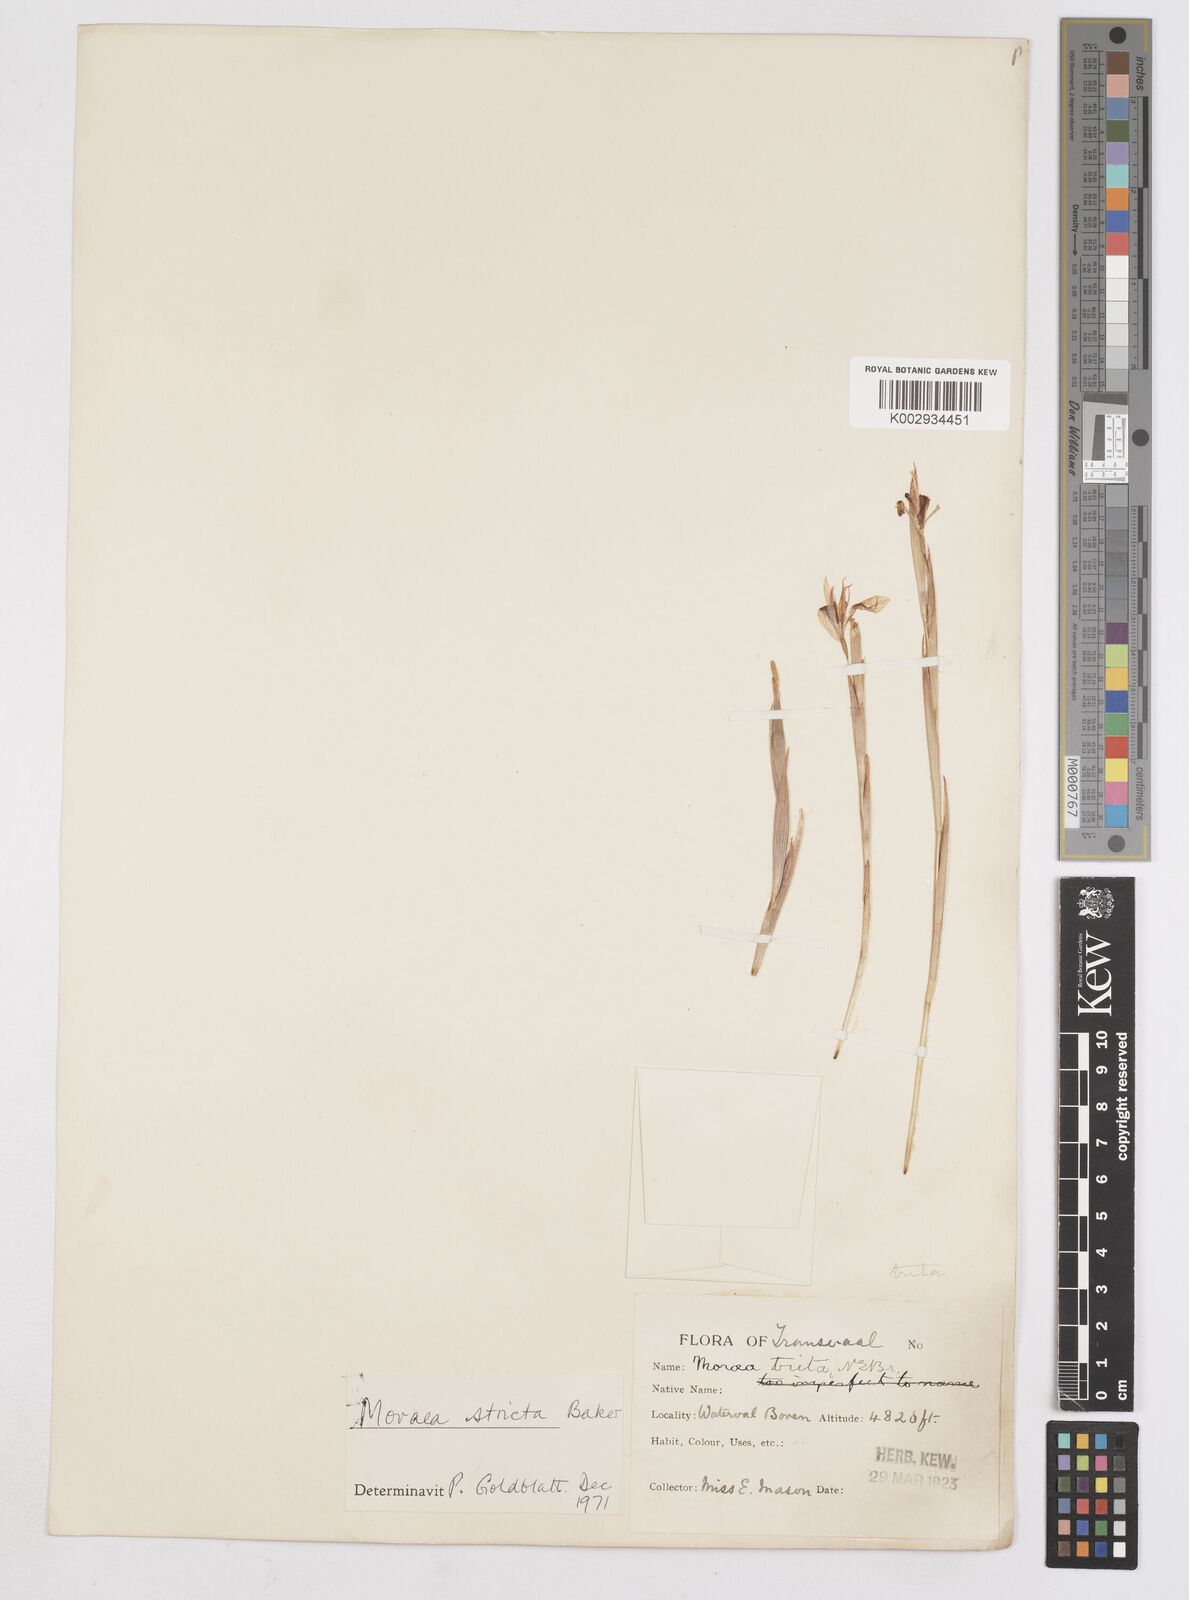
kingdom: Plantae
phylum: Tracheophyta
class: Liliopsida
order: Asparagales
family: Iridaceae
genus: Moraea
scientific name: Moraea stricta
